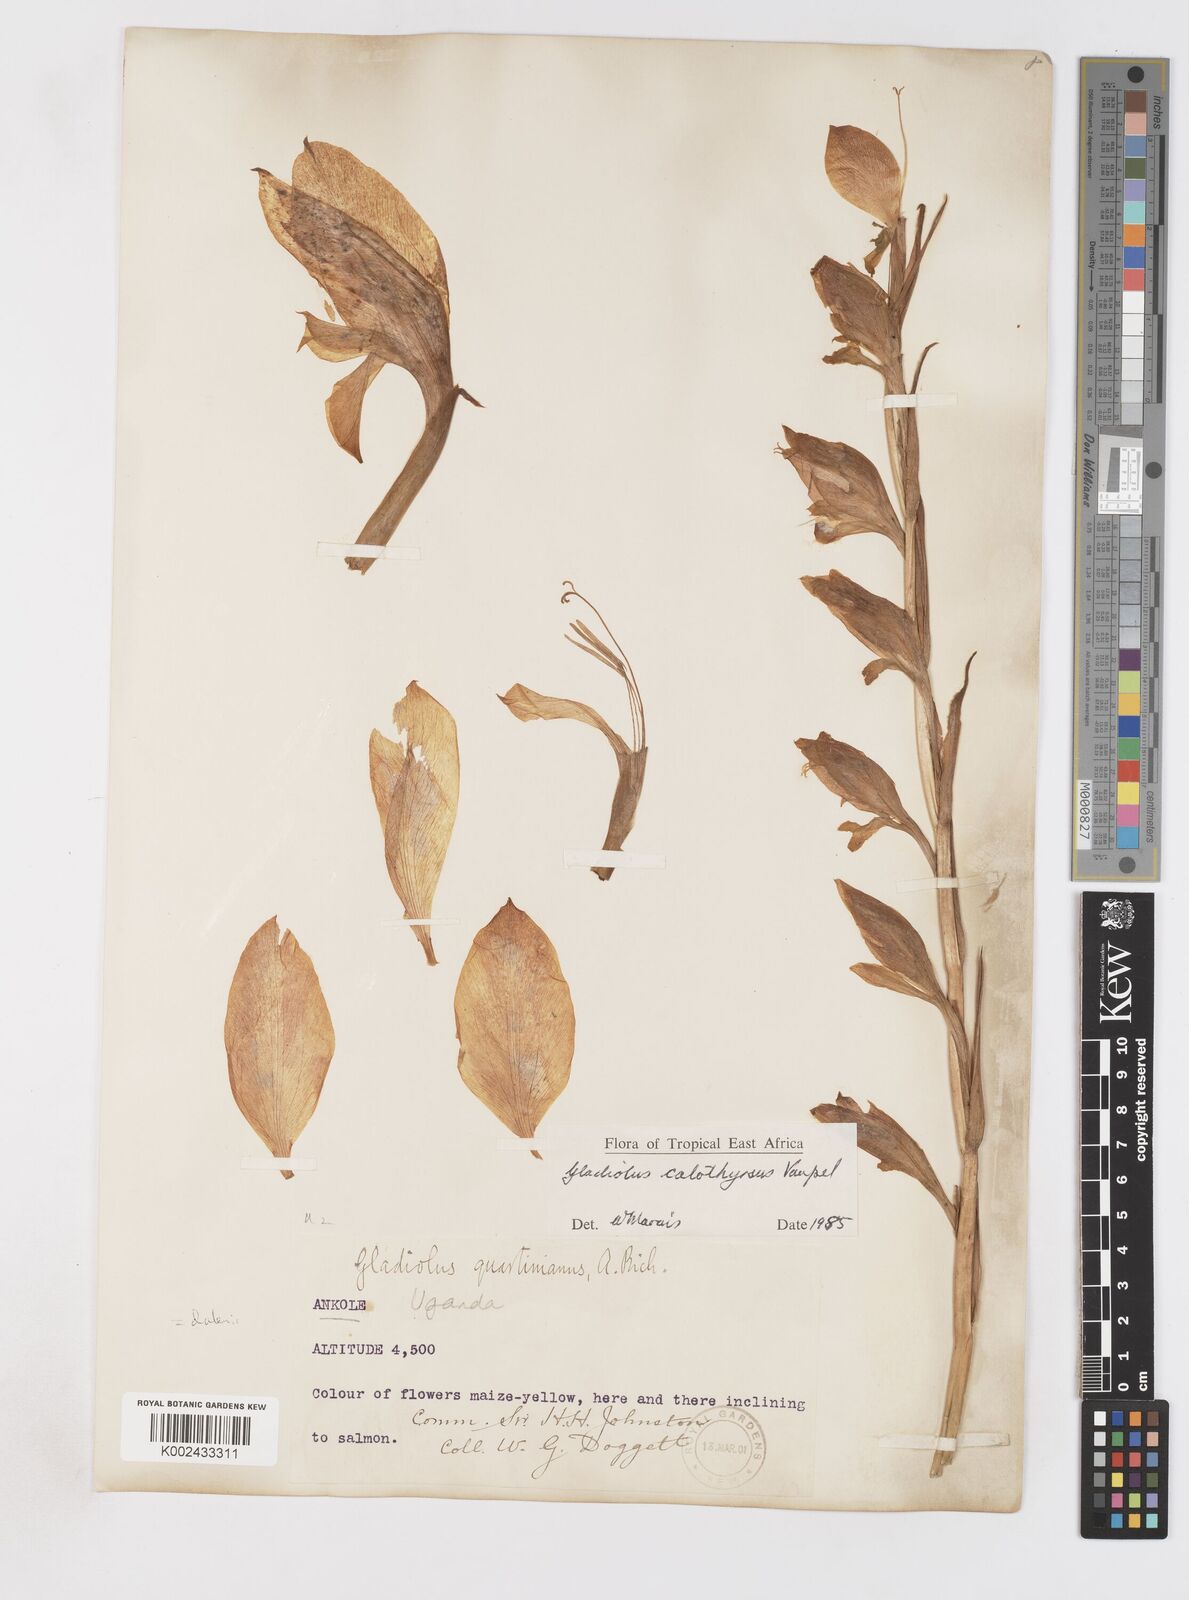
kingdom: Plantae
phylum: Tracheophyta
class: Liliopsida
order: Asparagales
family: Iridaceae
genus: Gladiolus
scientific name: Gladiolus dalenii
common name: Cornflag
